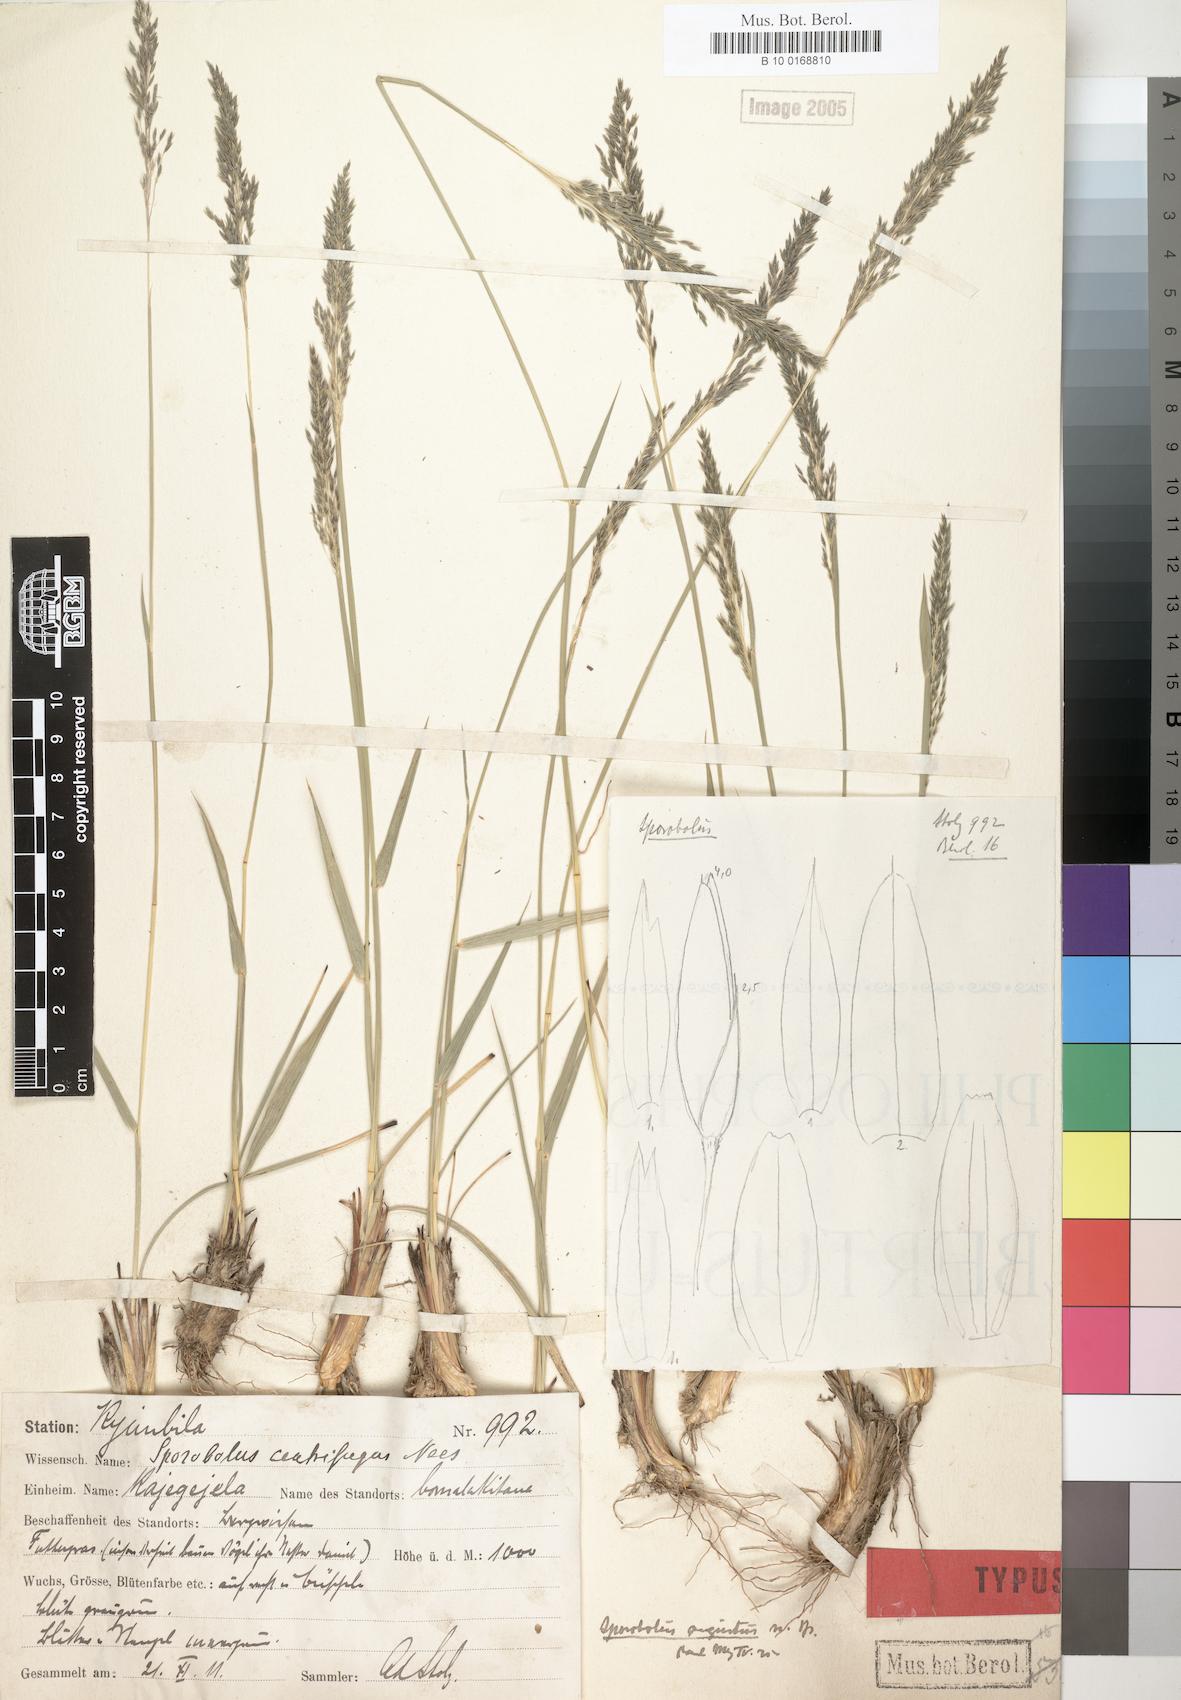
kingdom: Plantae
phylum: Tracheophyta
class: Liliopsida
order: Poales
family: Poaceae
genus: Sporobolus
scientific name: Sporobolus subulatus
